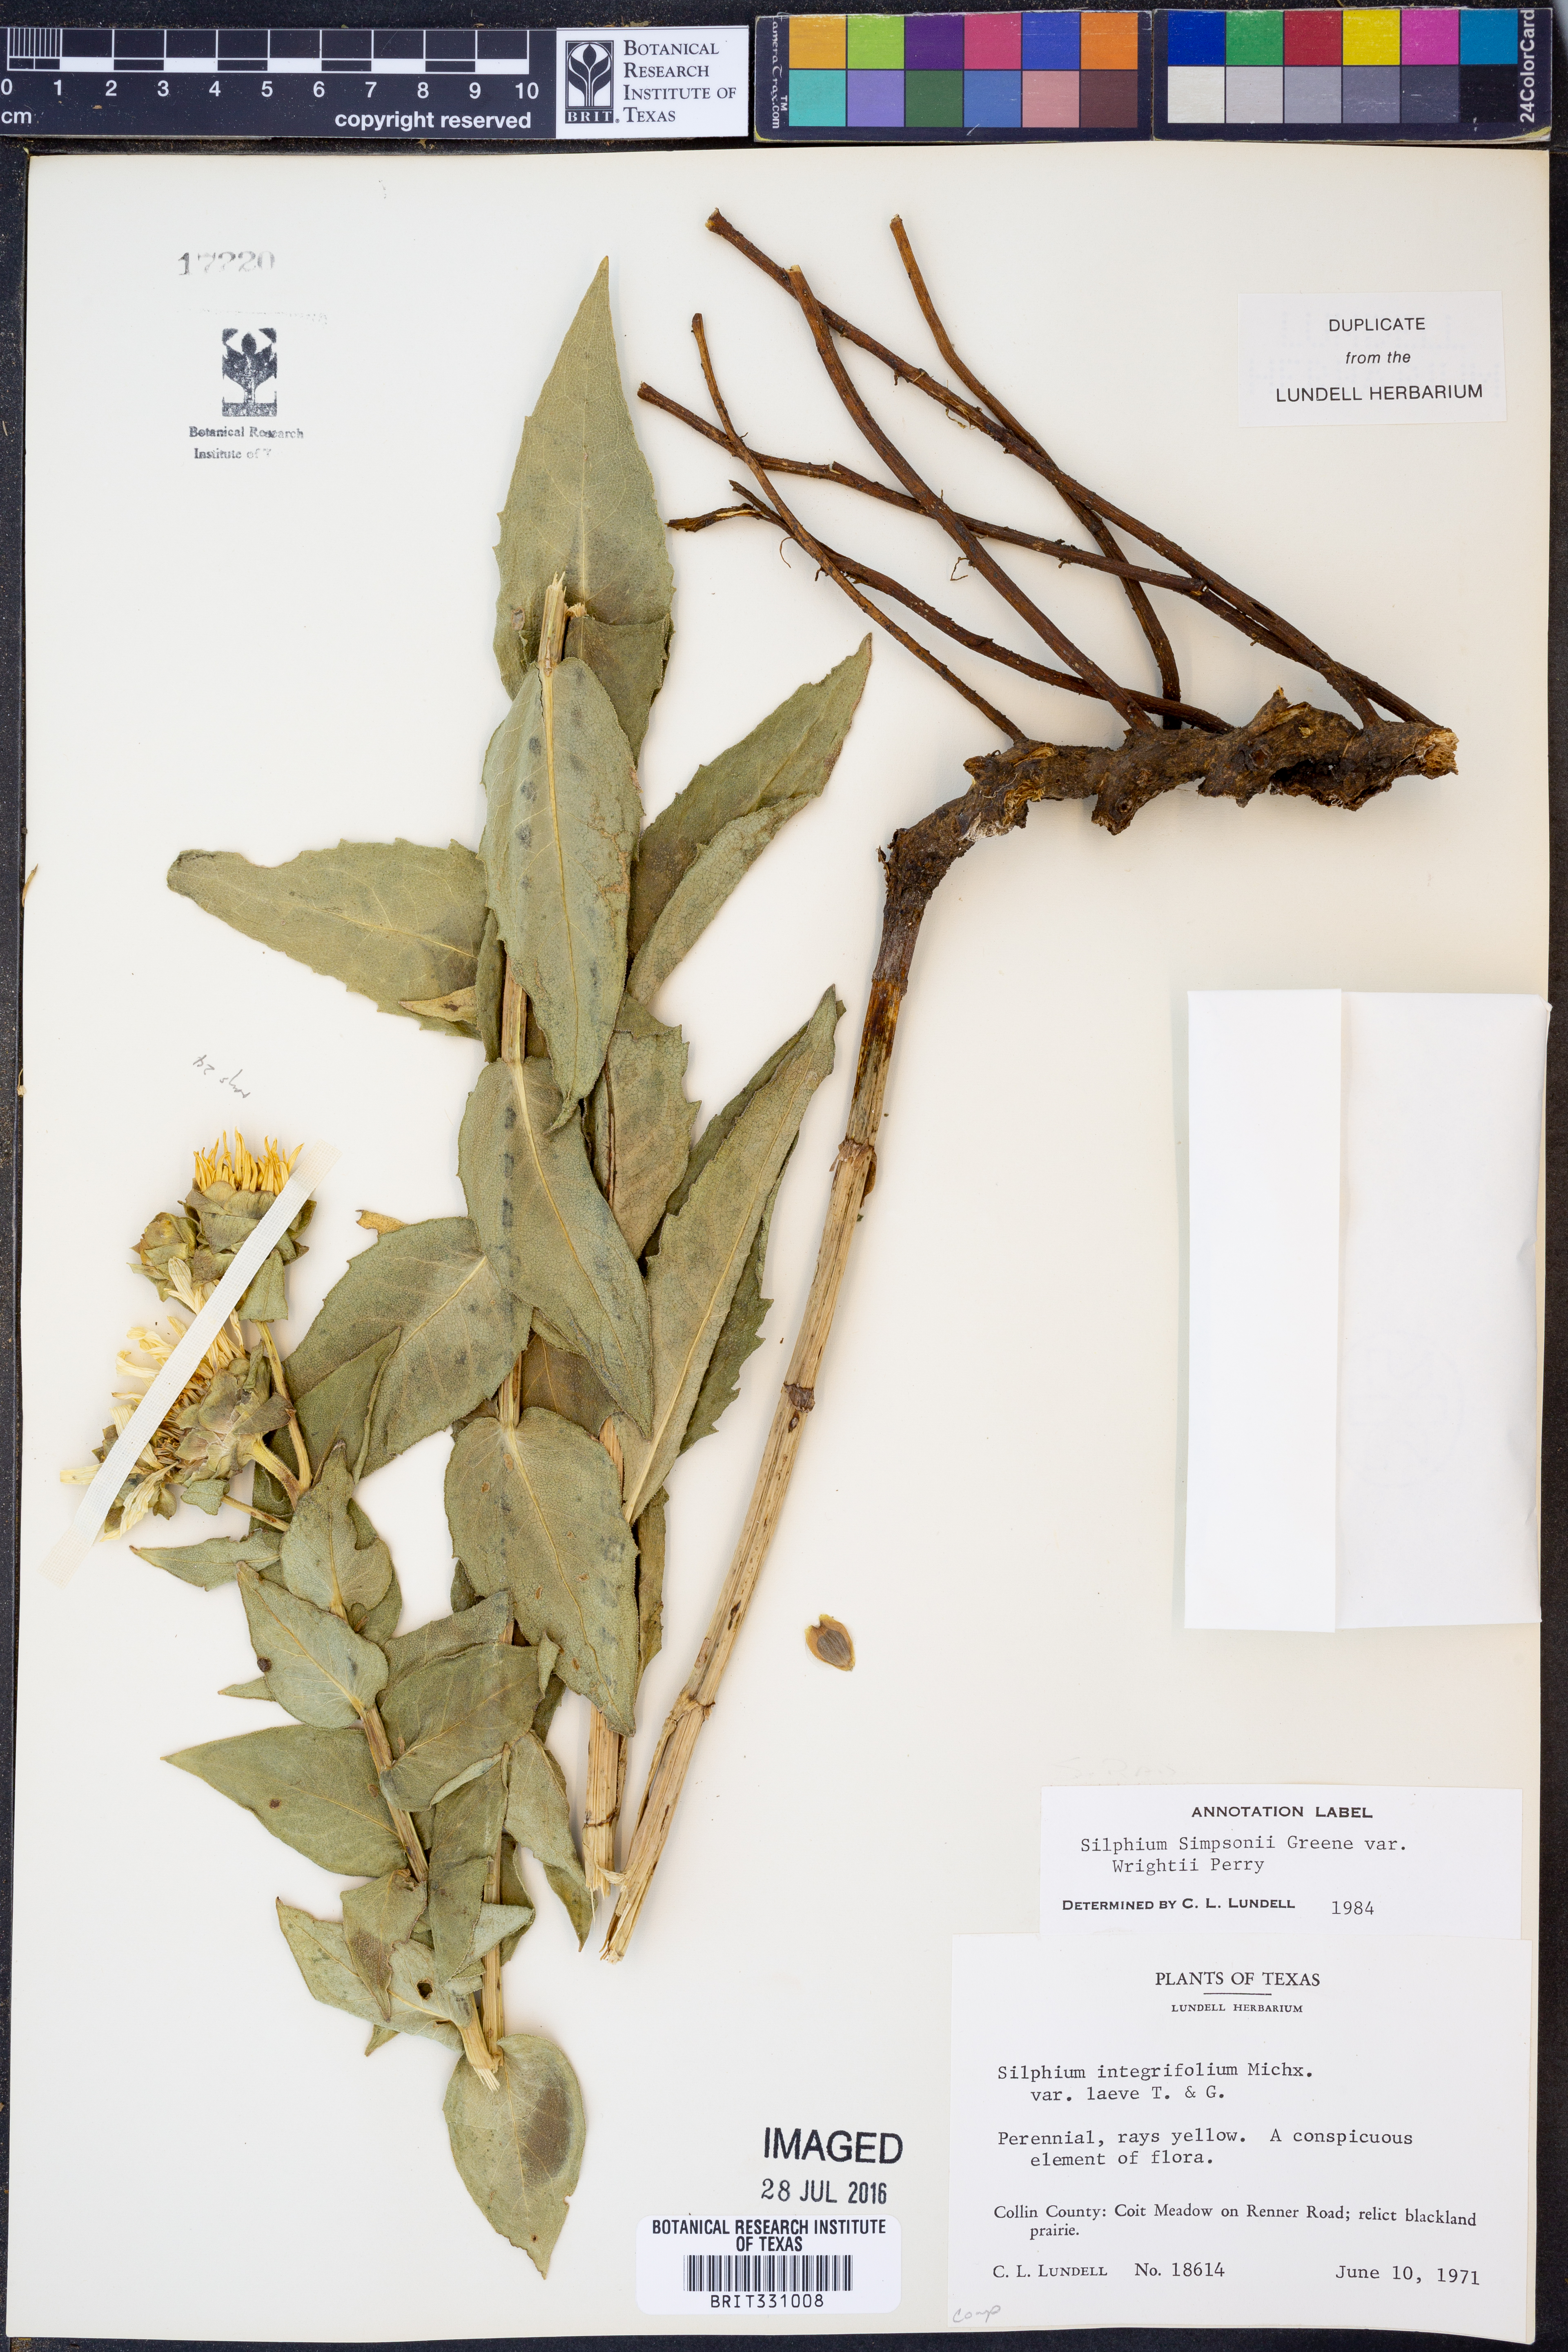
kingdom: Plantae
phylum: Tracheophyta
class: Magnoliopsida
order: Asterales
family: Asteraceae
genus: Silphium
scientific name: Silphium asteriscus
